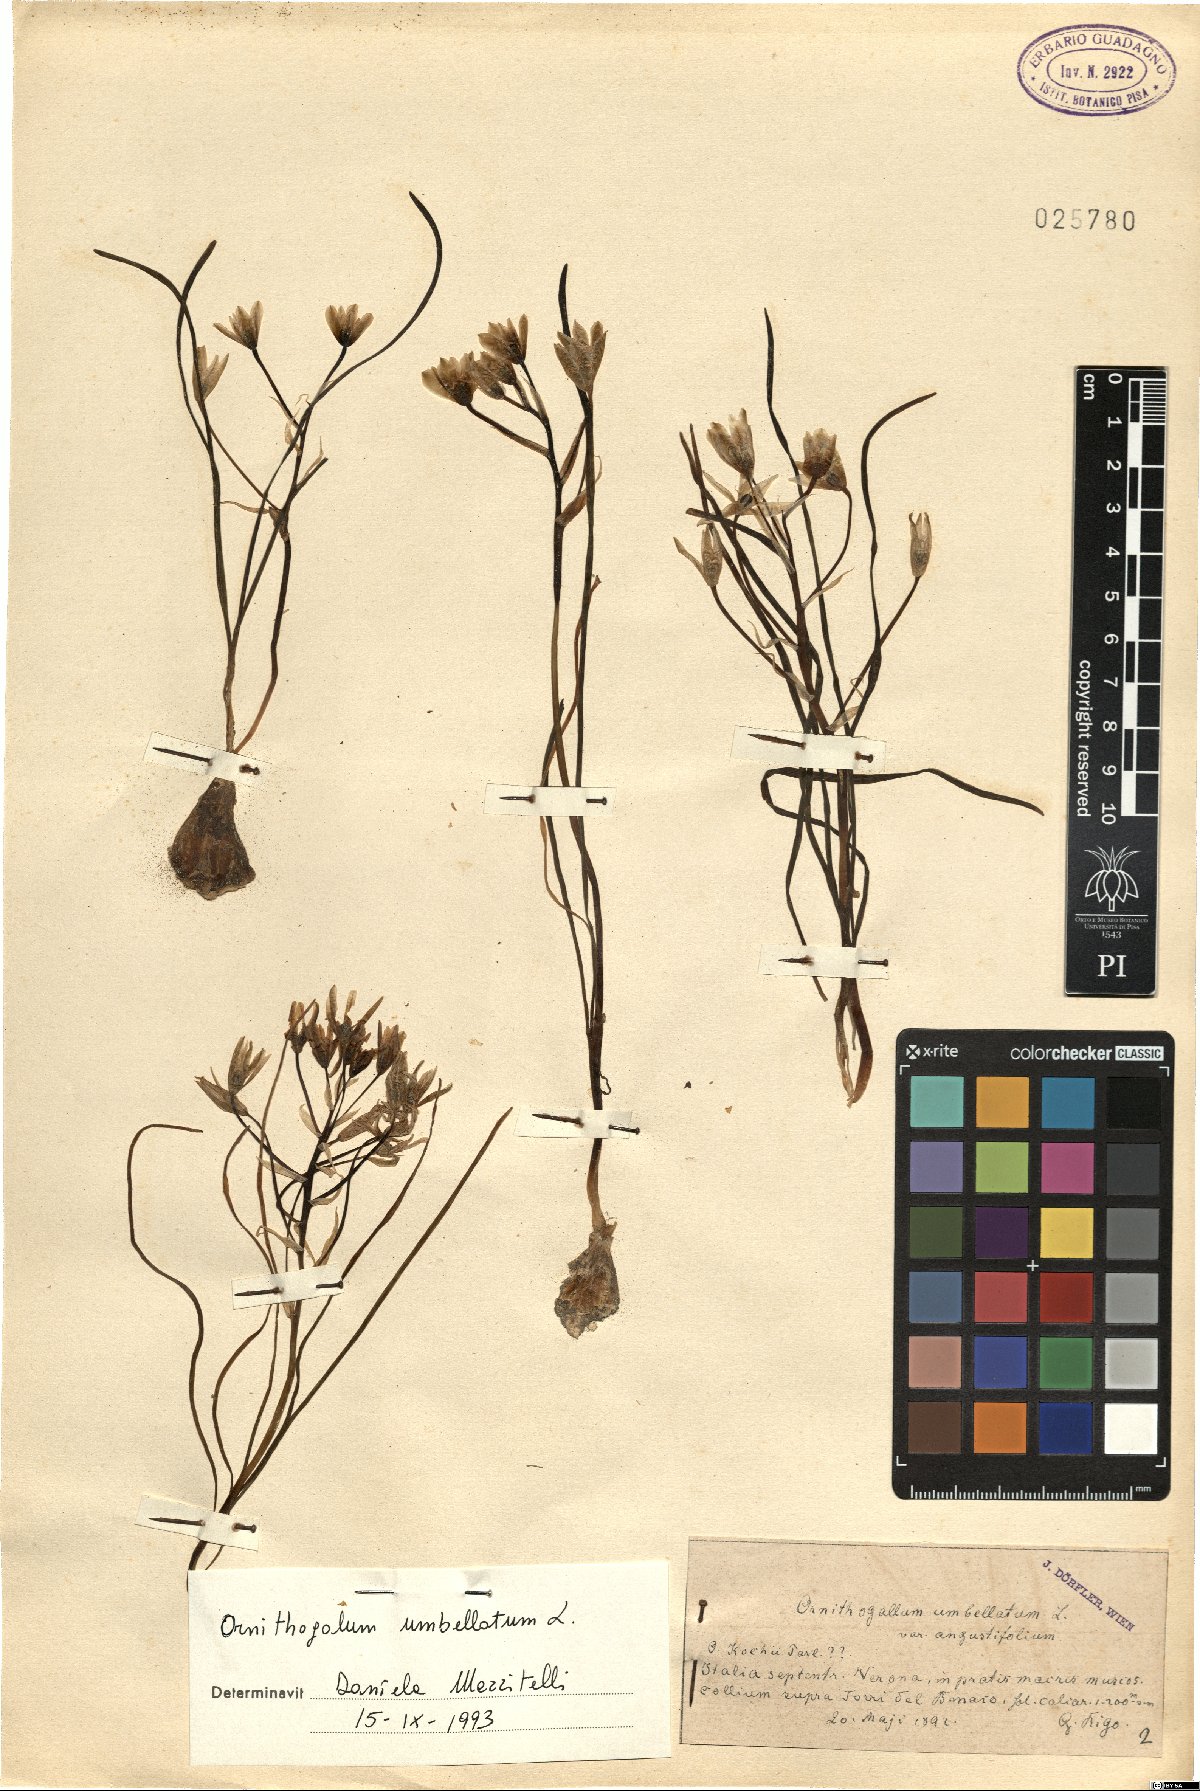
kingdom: Plantae
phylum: Tracheophyta
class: Liliopsida
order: Asparagales
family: Asparagaceae
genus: Ornithogalum
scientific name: Ornithogalum umbellatum
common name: Garden star-of-bethlehem
